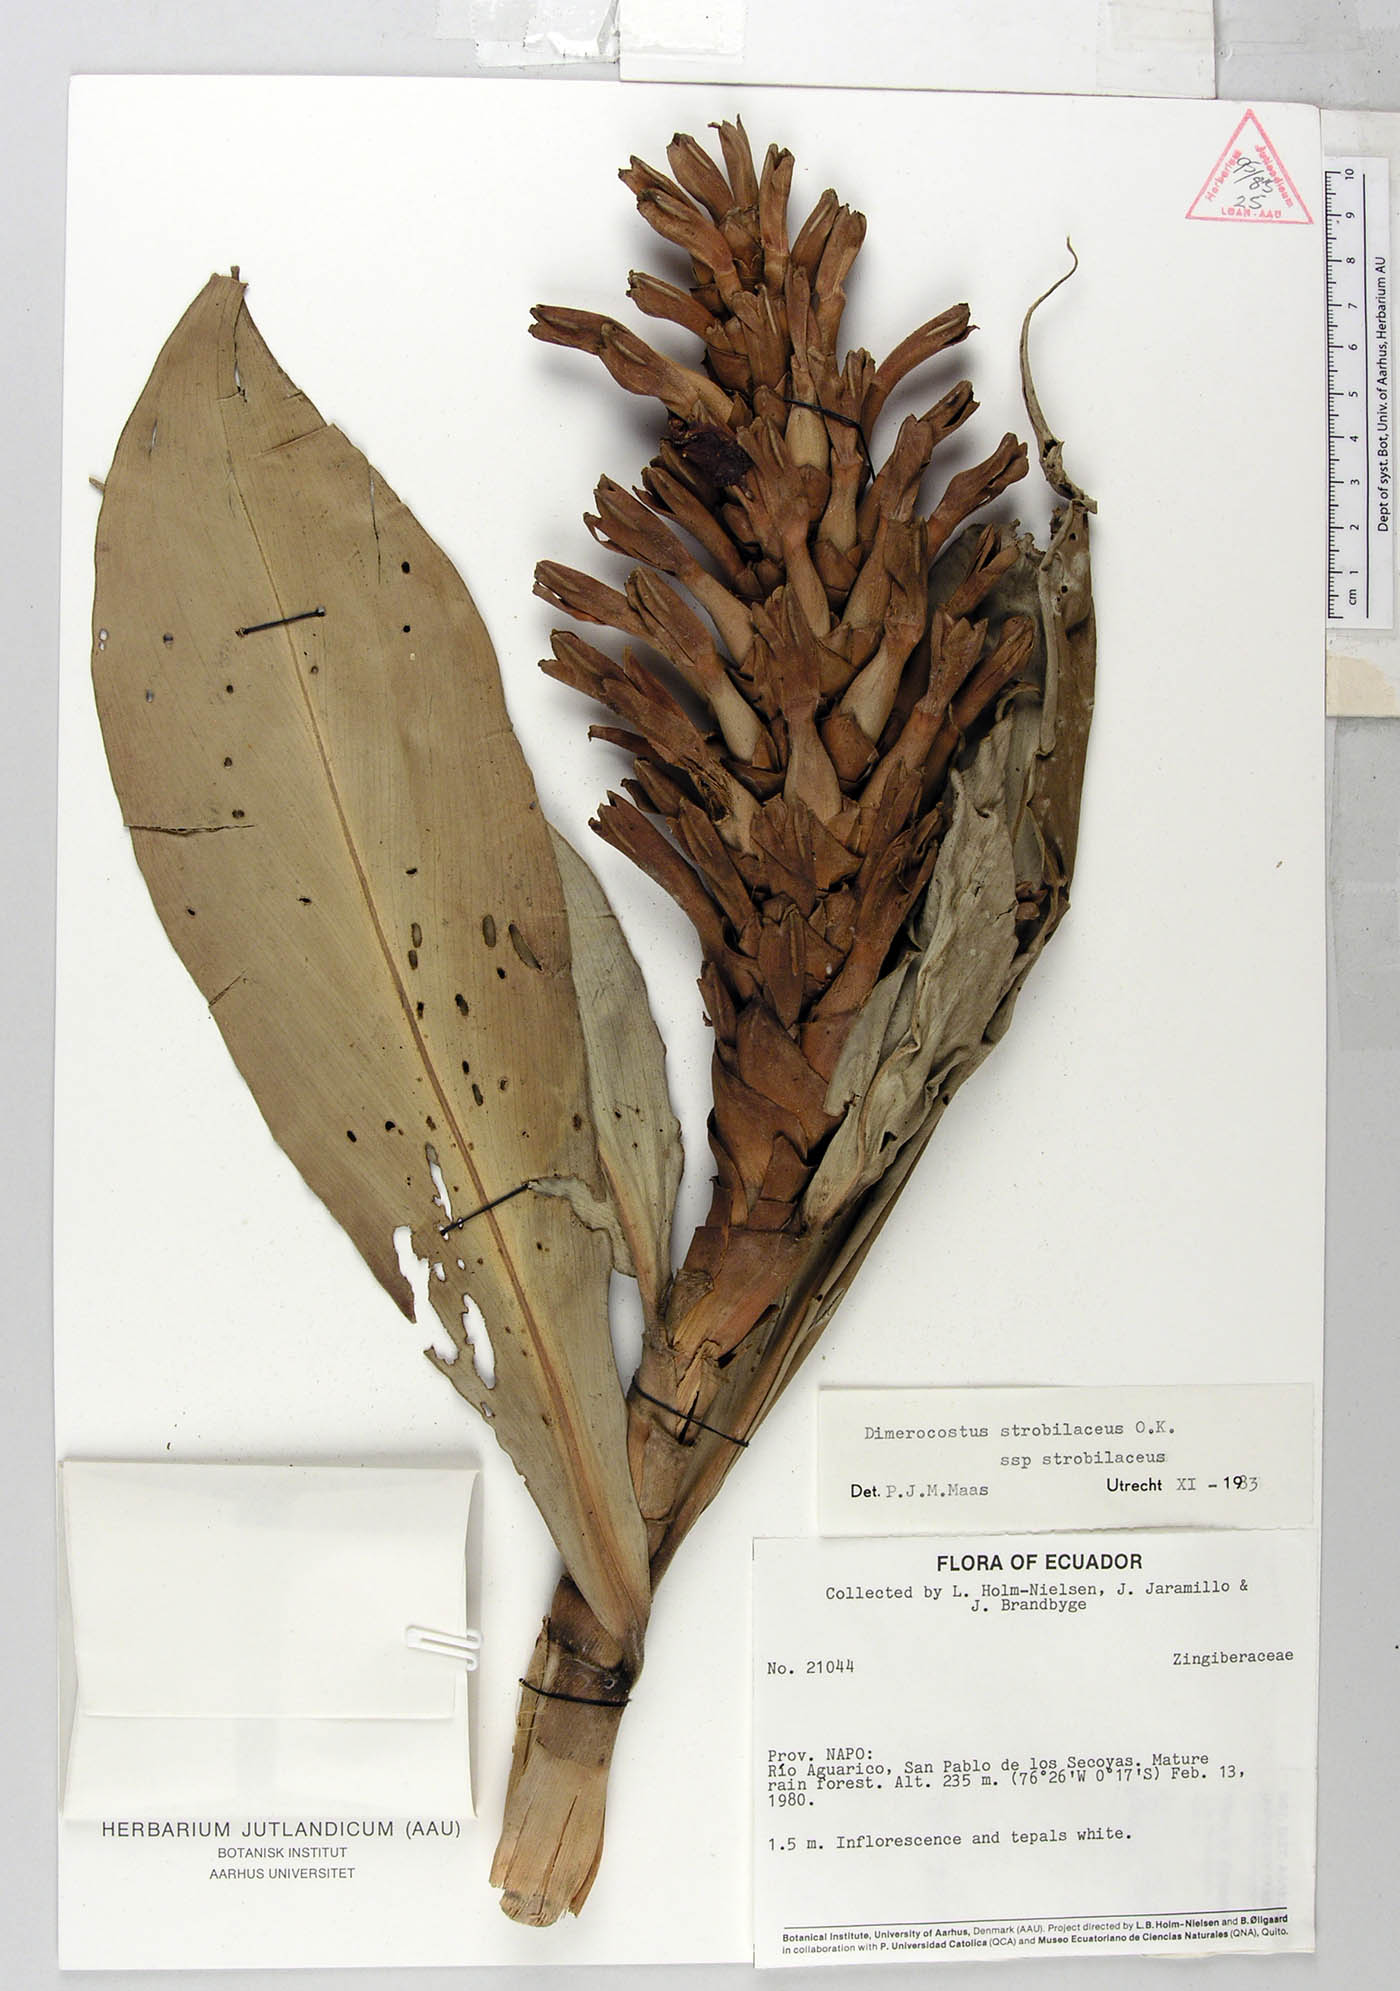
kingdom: Plantae
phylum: Tracheophyta
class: Liliopsida
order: Zingiberales
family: Costaceae
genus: Dimerocostus
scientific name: Dimerocostus strobilaceus
